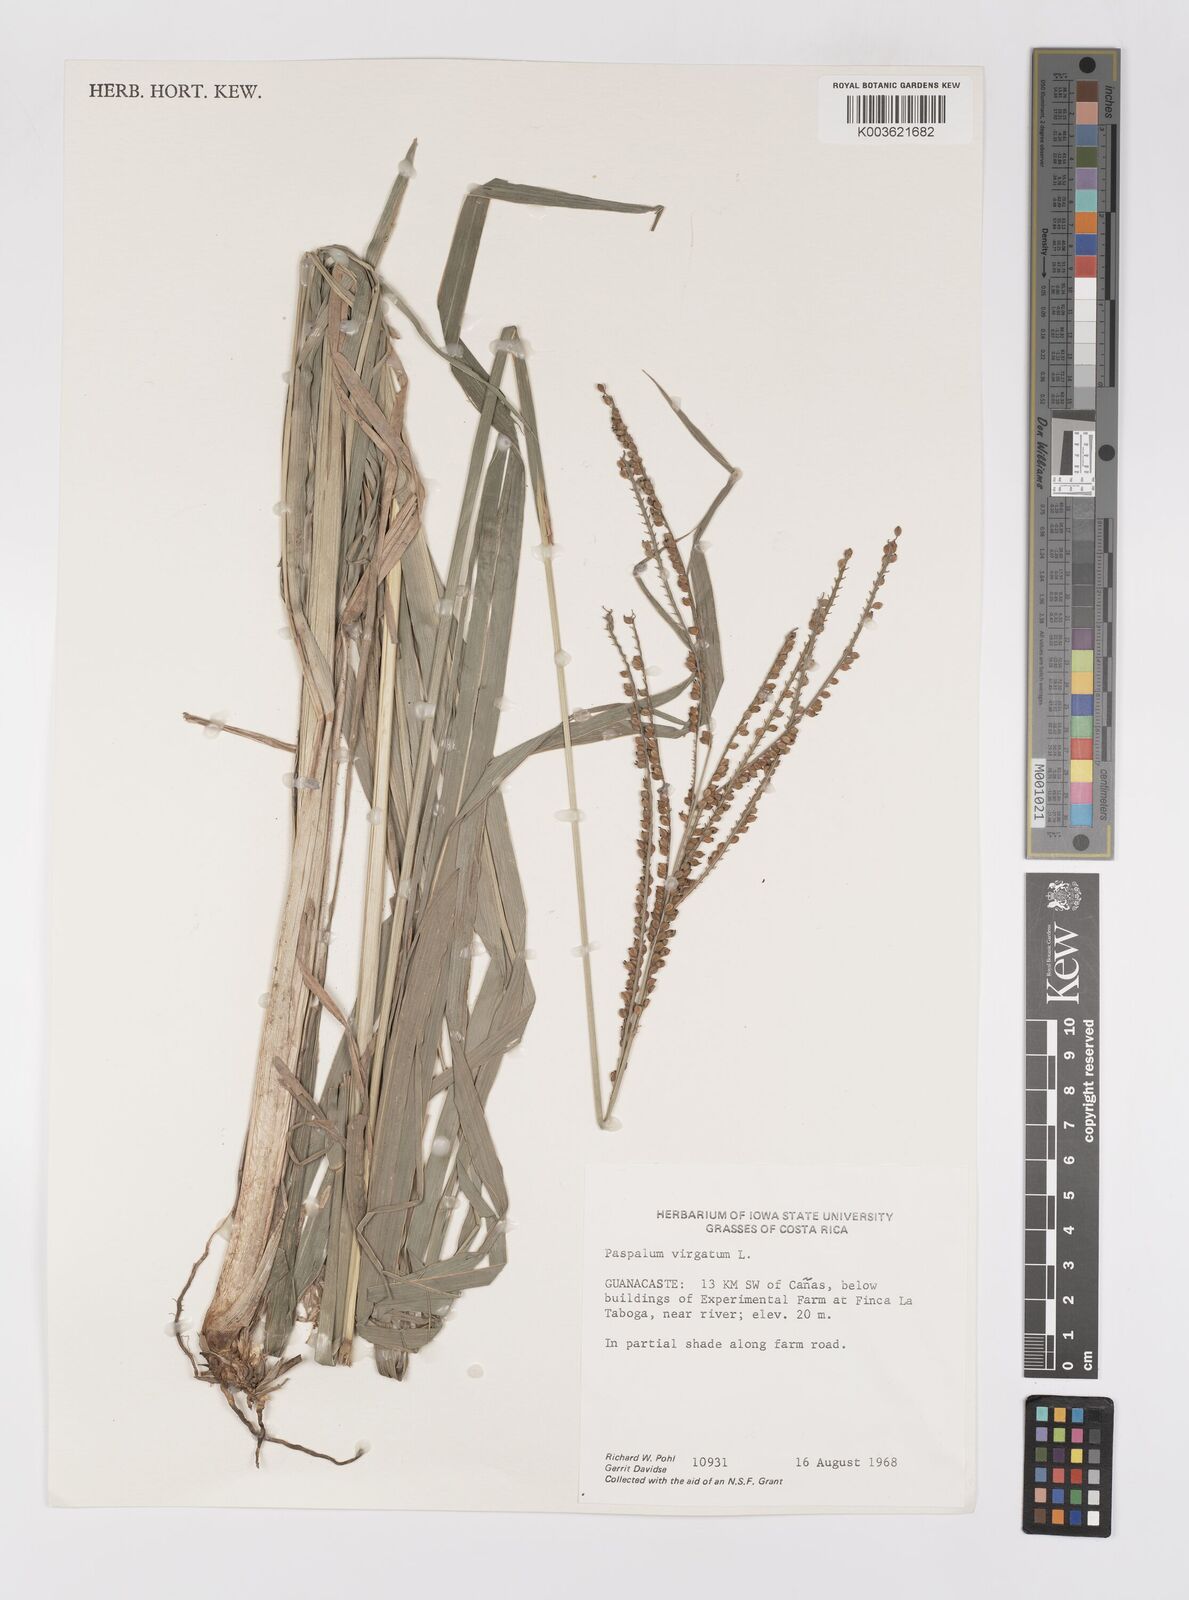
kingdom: Plantae
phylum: Tracheophyta
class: Liliopsida
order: Poales
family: Poaceae
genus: Paspalum
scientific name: Paspalum virgatum
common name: Talquezal
